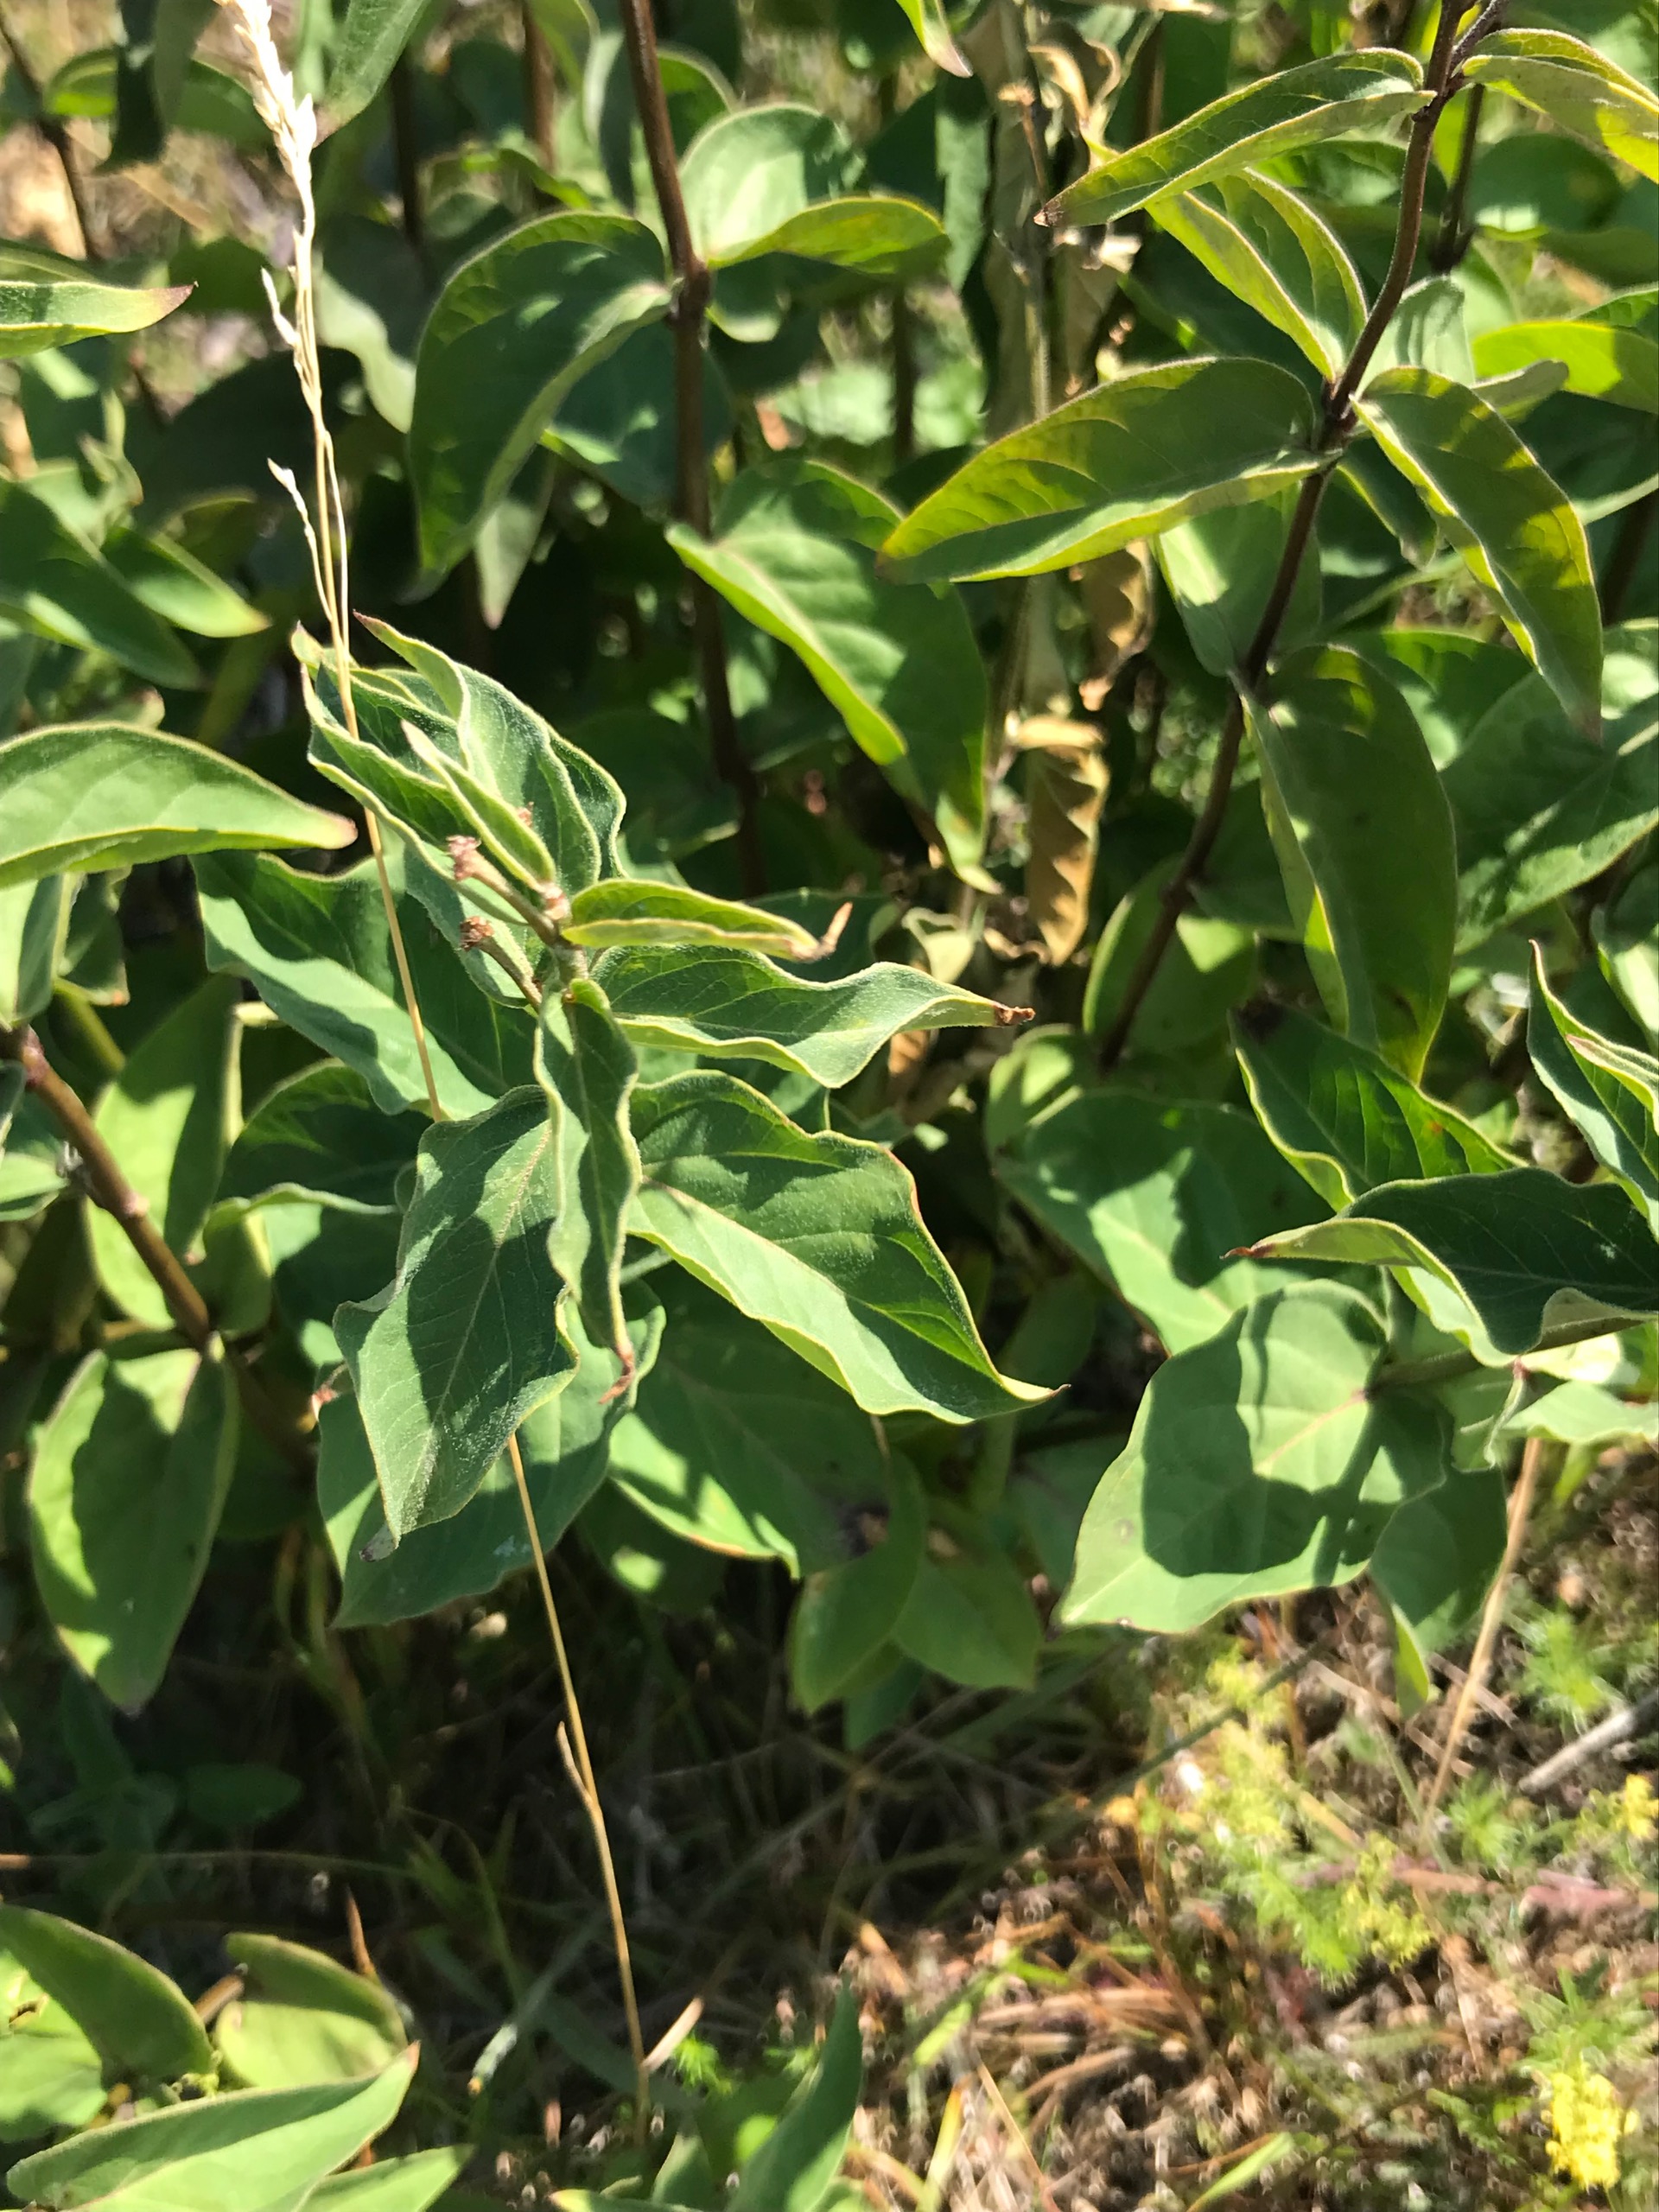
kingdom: Plantae
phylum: Tracheophyta
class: Magnoliopsida
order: Gentianales
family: Apocynaceae
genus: Vincetoxicum
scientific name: Vincetoxicum hirundinaria
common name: Svalerod
